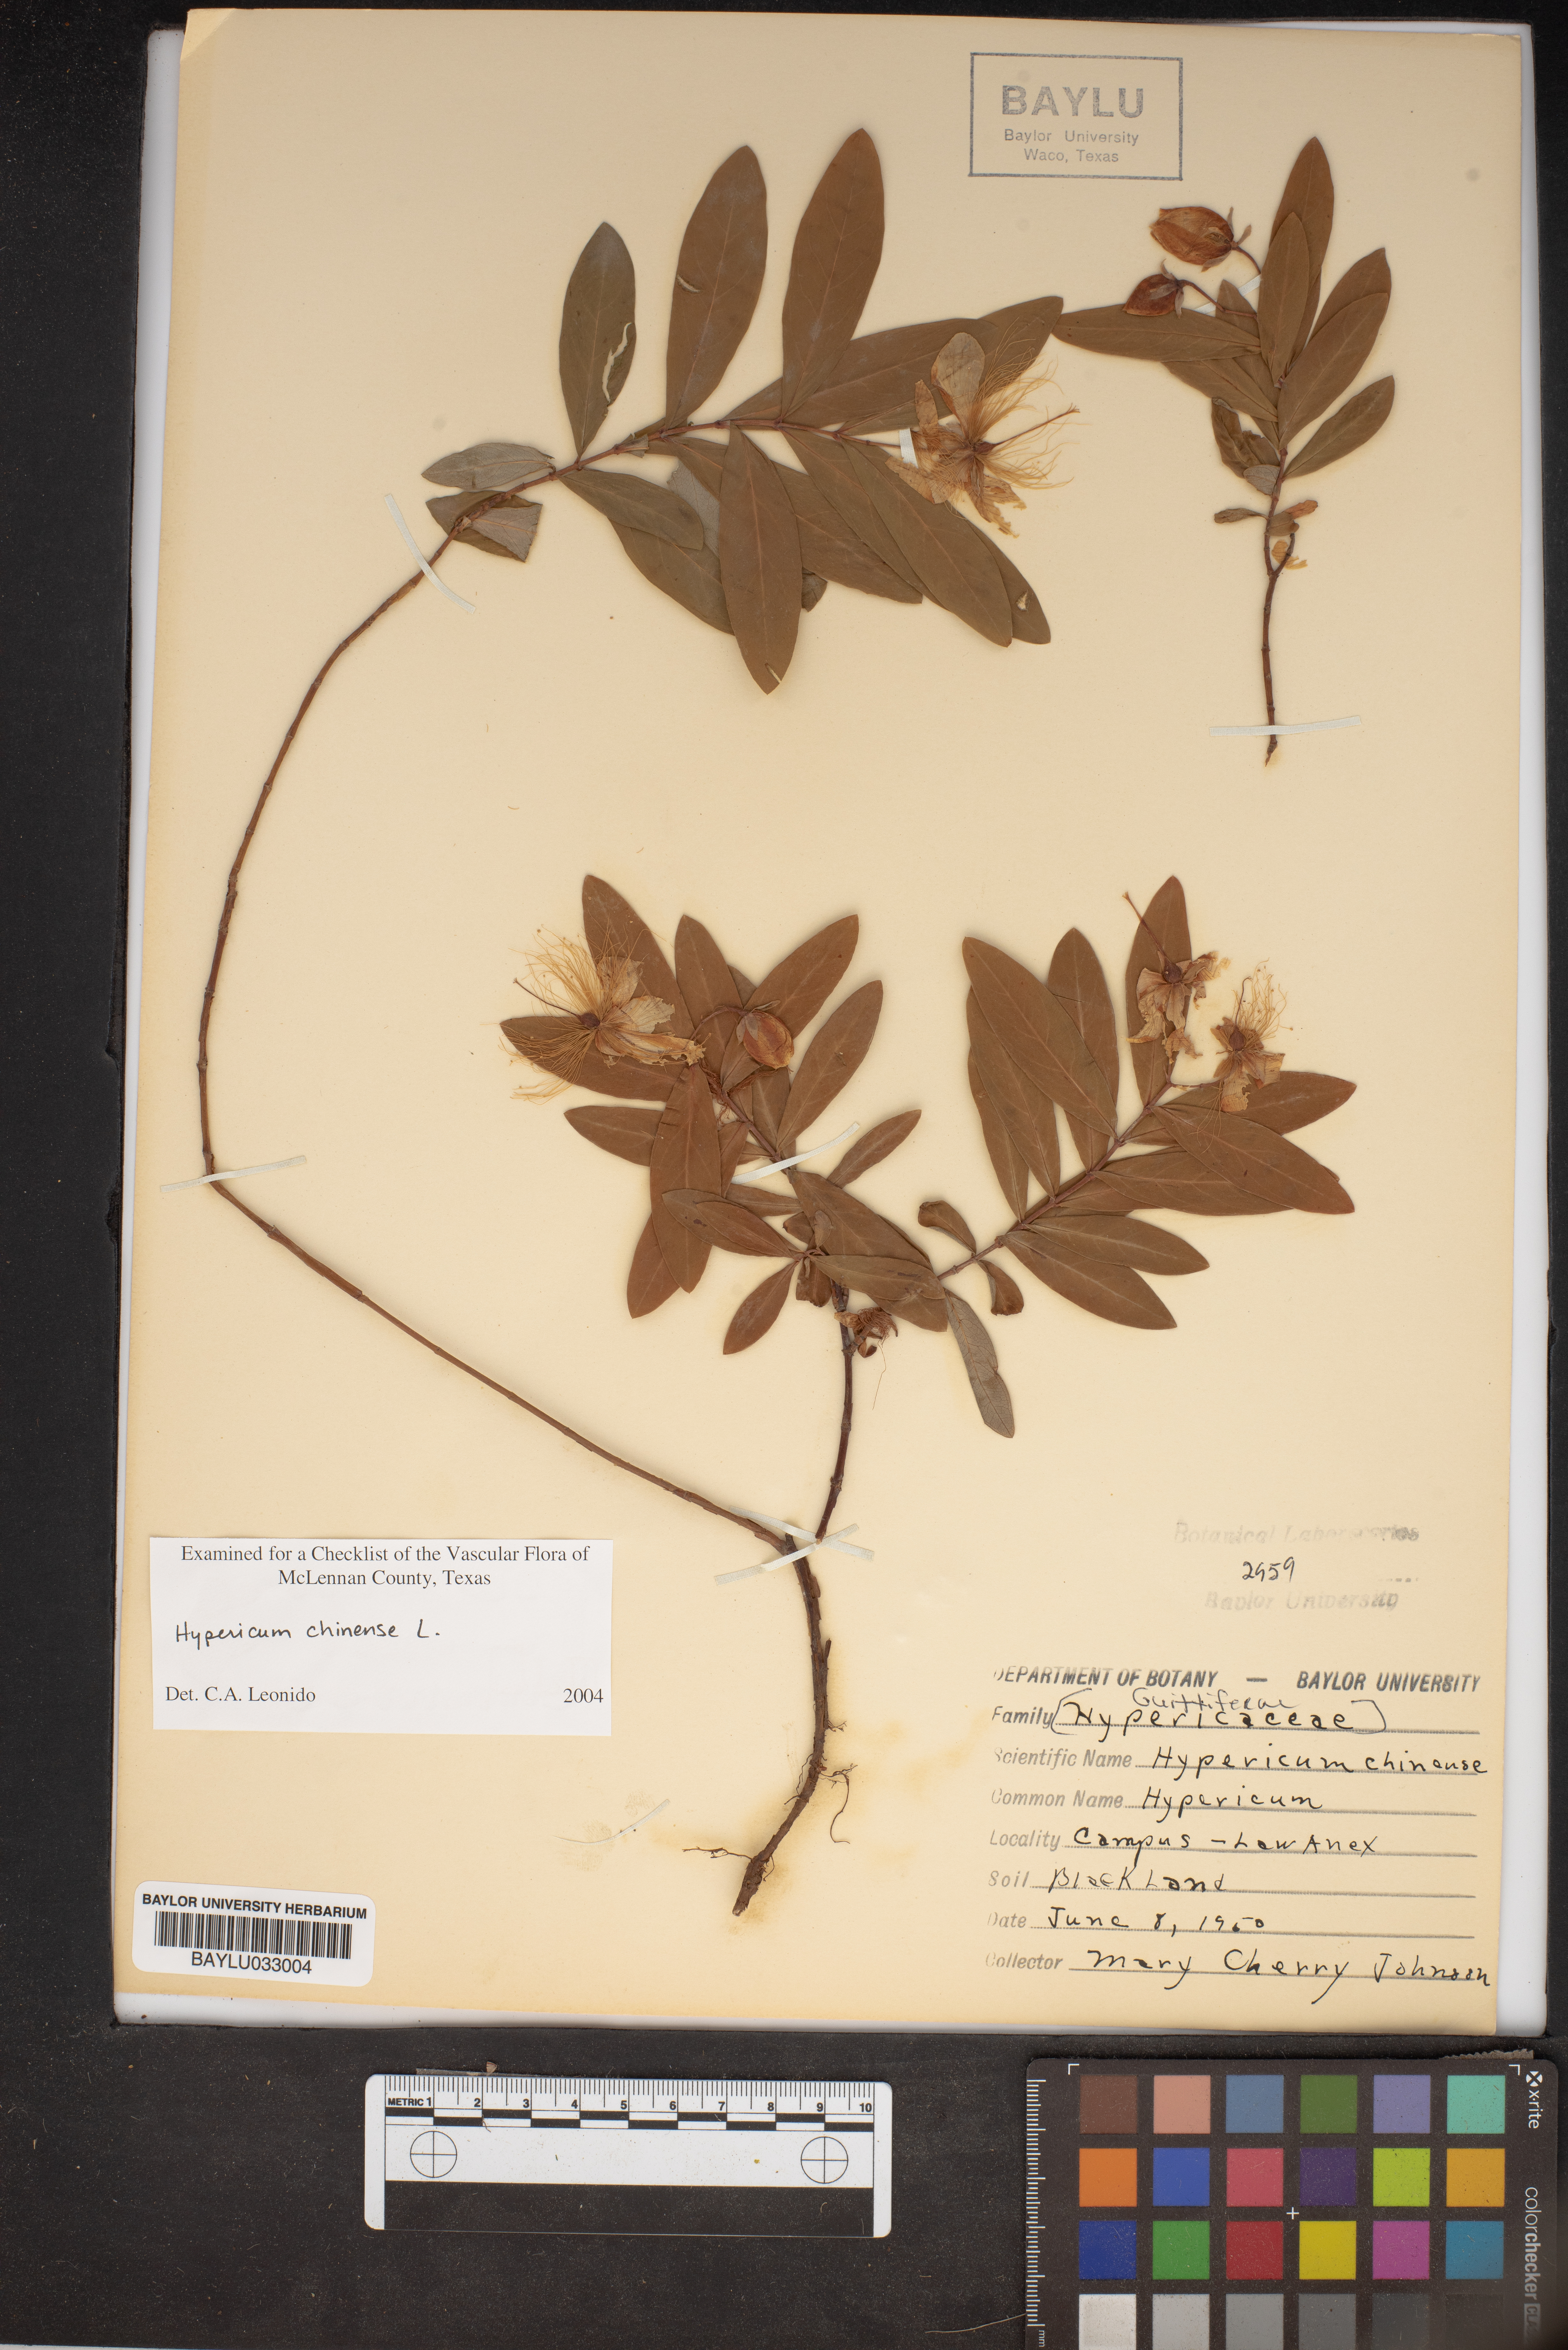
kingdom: Plantae
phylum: Tracheophyta
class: Magnoliopsida
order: Malpighiales
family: Hypericaceae
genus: Hypericum
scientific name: Hypericum monogynum
